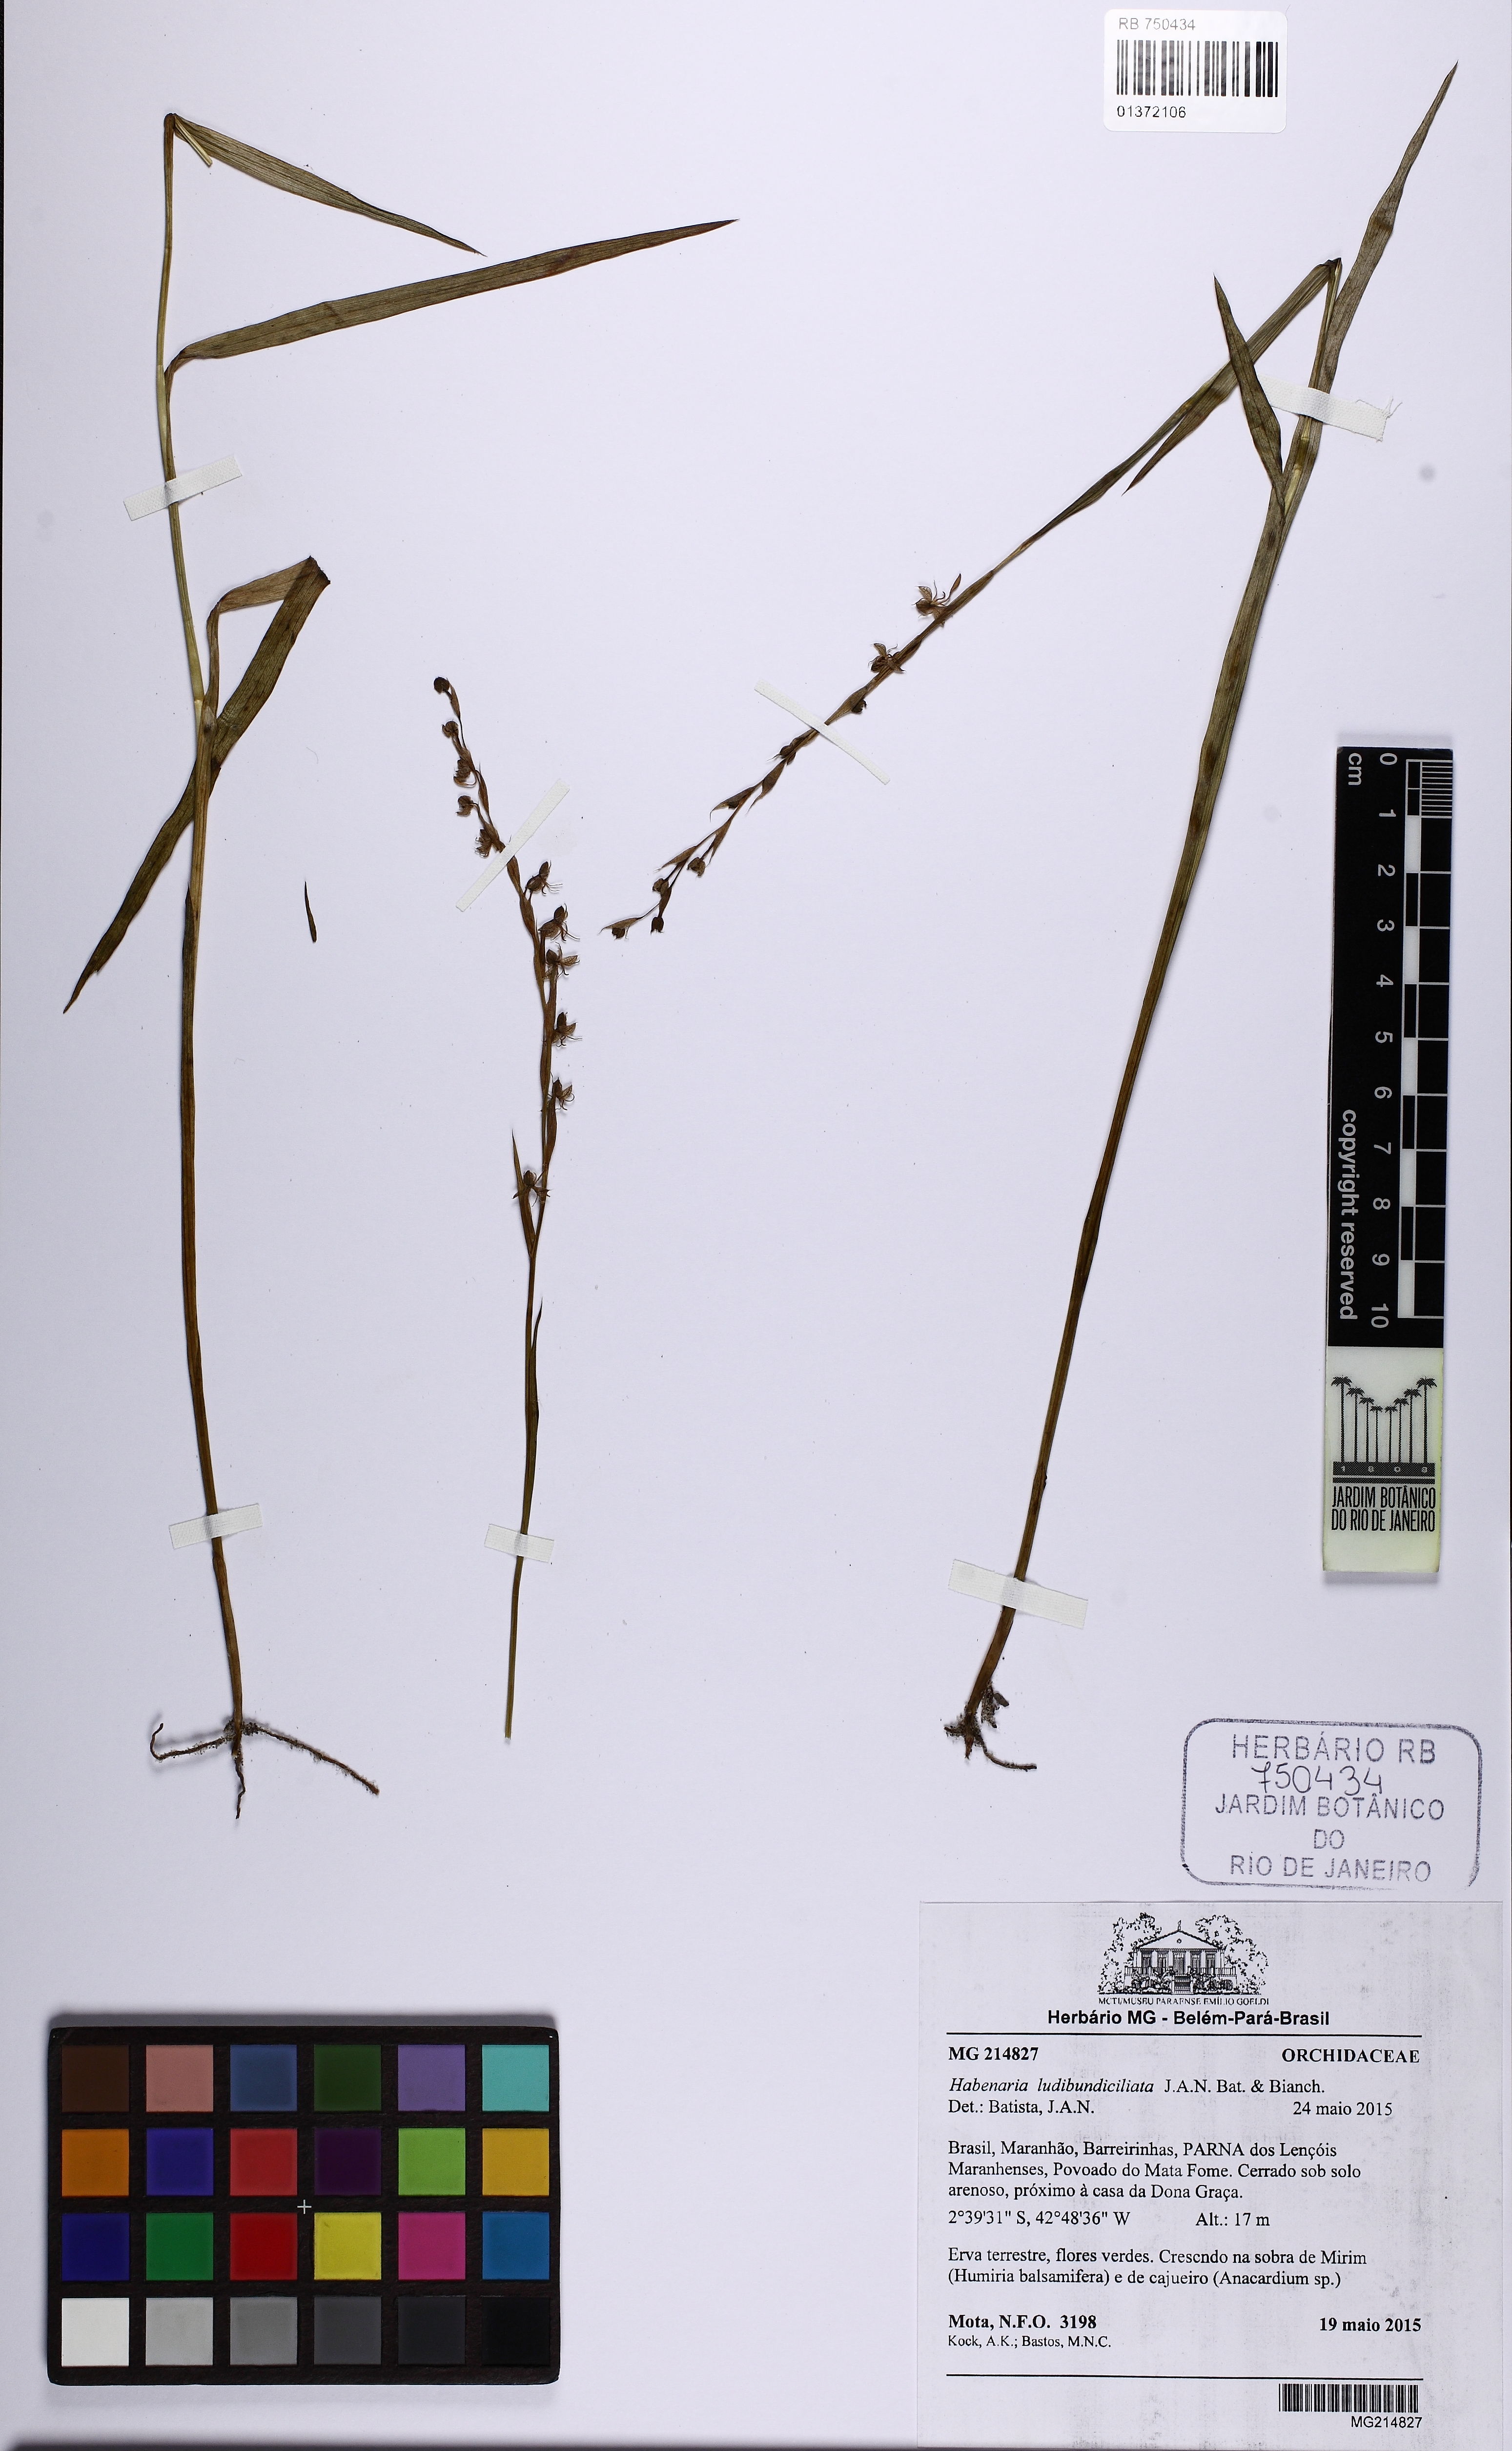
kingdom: Plantae
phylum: Tracheophyta
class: Liliopsida
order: Asparagales
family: Orchidaceae
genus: Habenaria
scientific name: Habenaria ludibundiciliata
